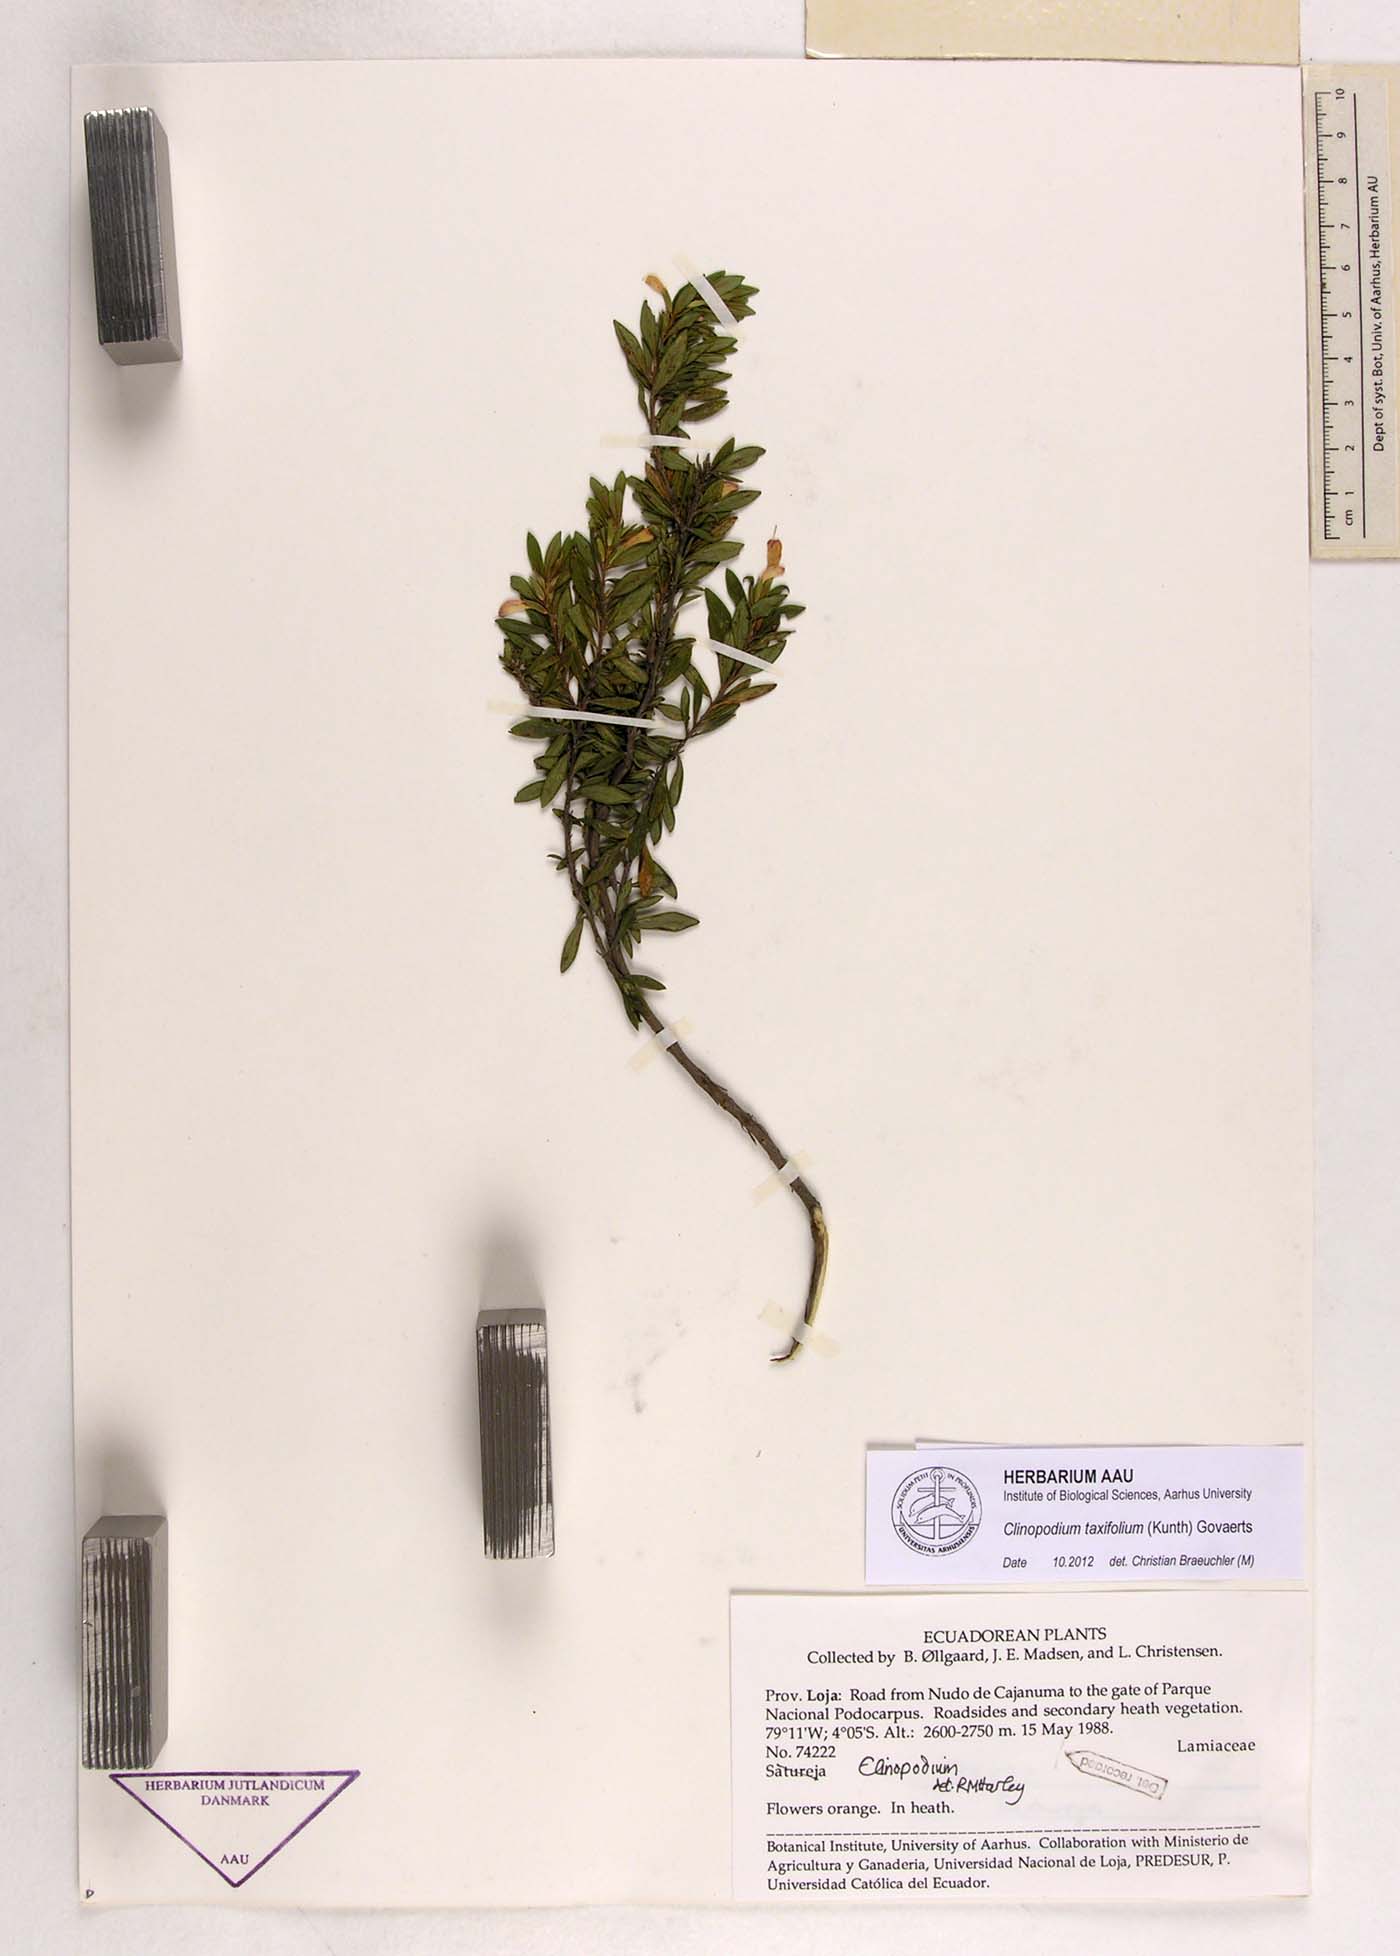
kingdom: Plantae
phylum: Tracheophyta
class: Magnoliopsida
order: Lamiales
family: Lamiaceae
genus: Clinopodium
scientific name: Clinopodium taxifolium
